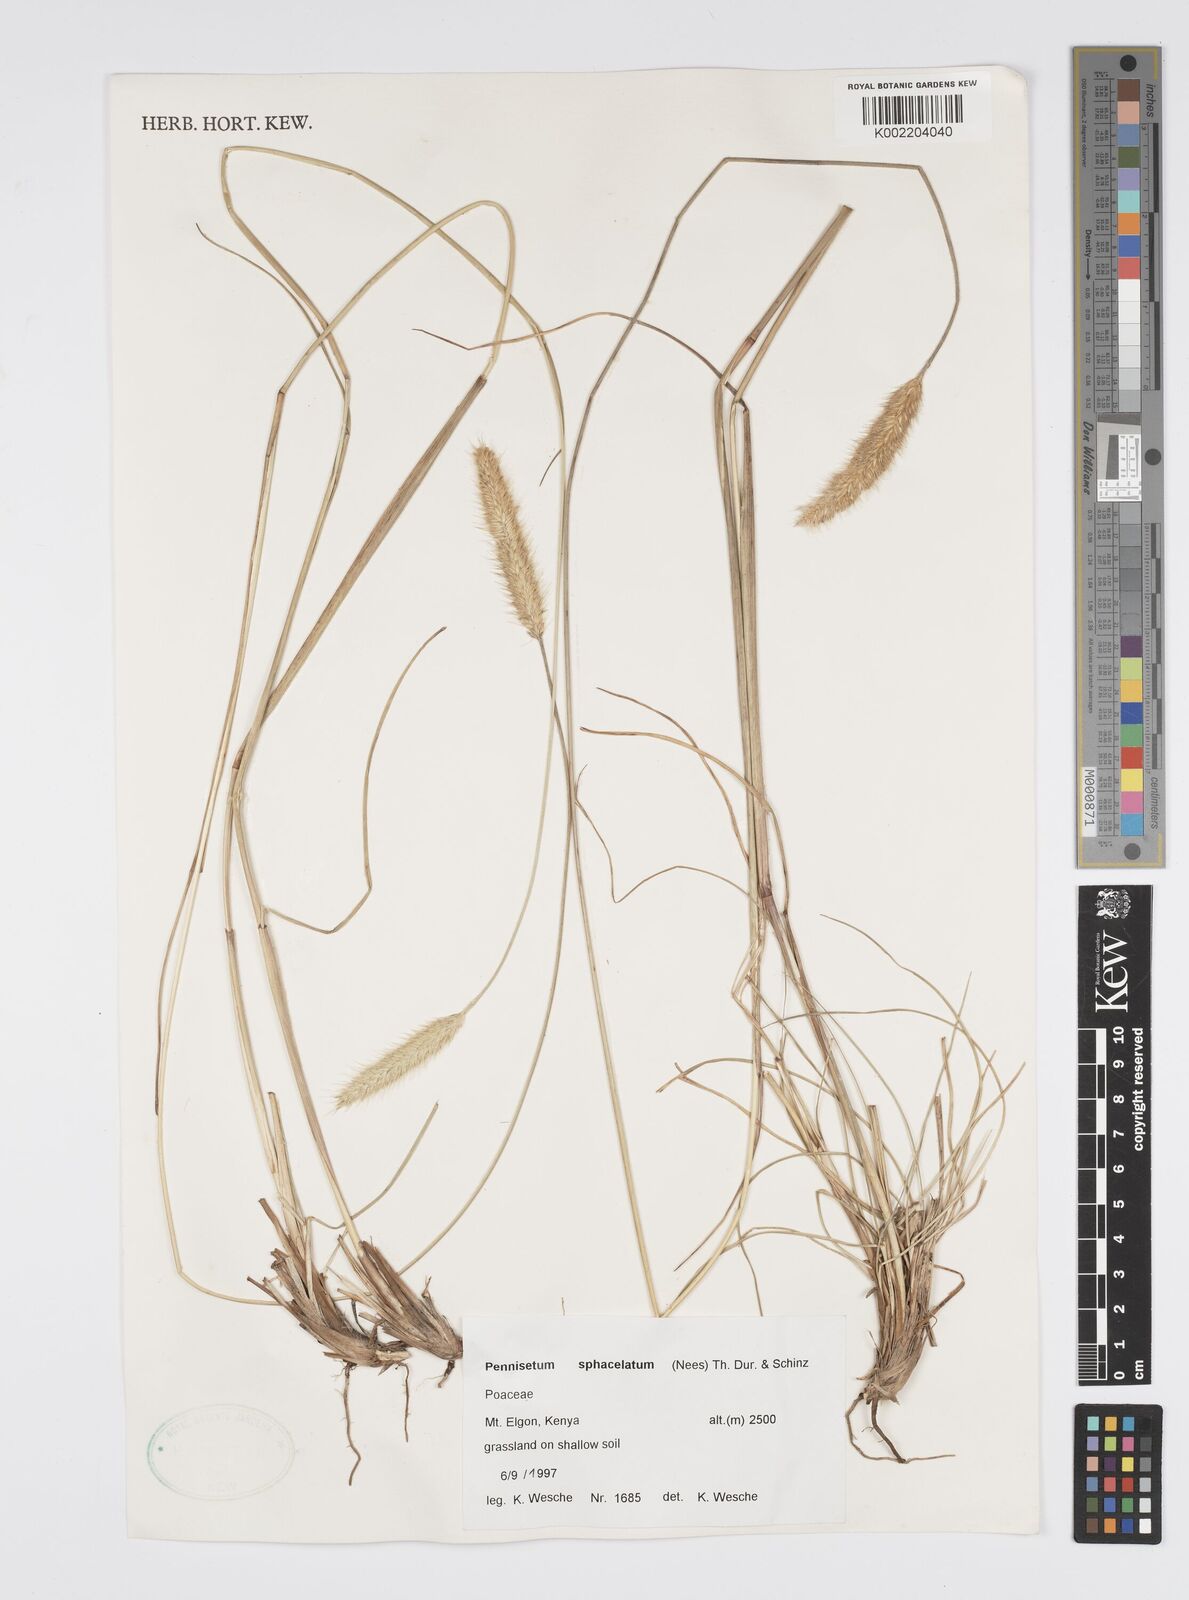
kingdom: Plantae
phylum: Tracheophyta
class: Liliopsida
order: Poales
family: Poaceae
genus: Cenchrus
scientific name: Cenchrus sphacelatus
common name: Bulgras
